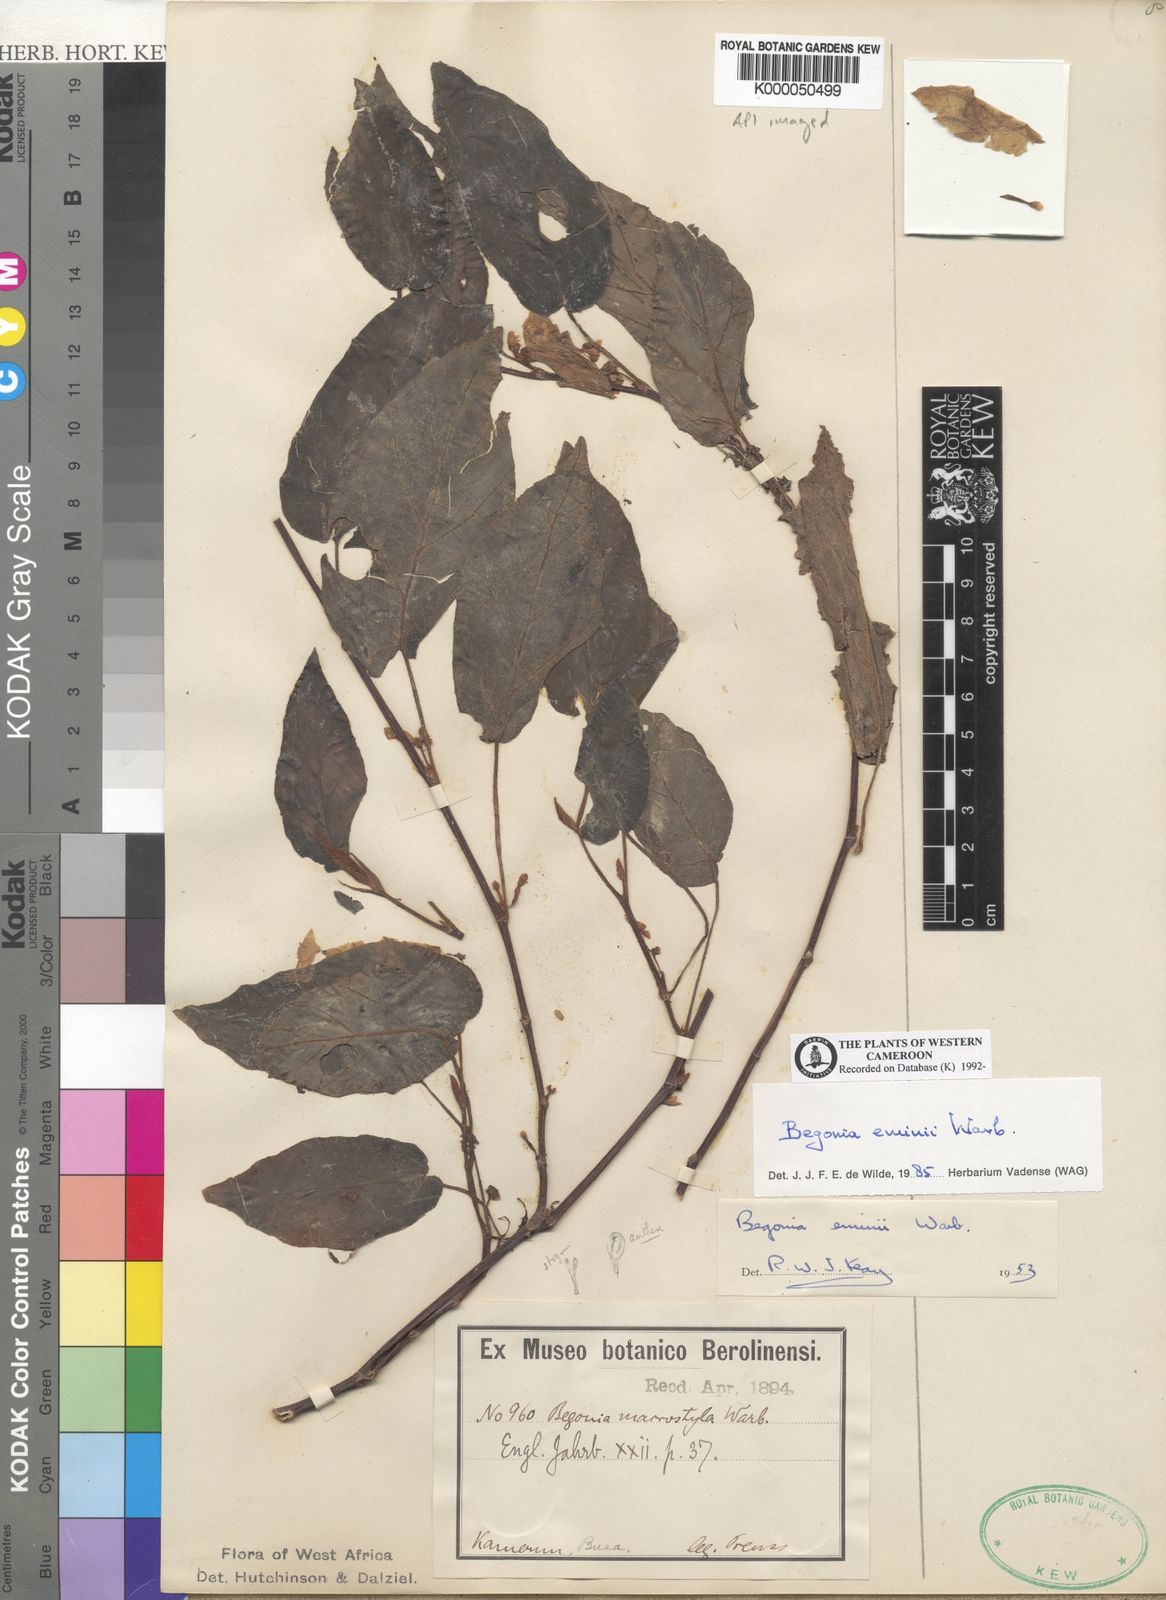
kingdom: Plantae
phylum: Tracheophyta
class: Magnoliopsida
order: Cucurbitales
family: Begoniaceae
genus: Begonia
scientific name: Begonia eminii
